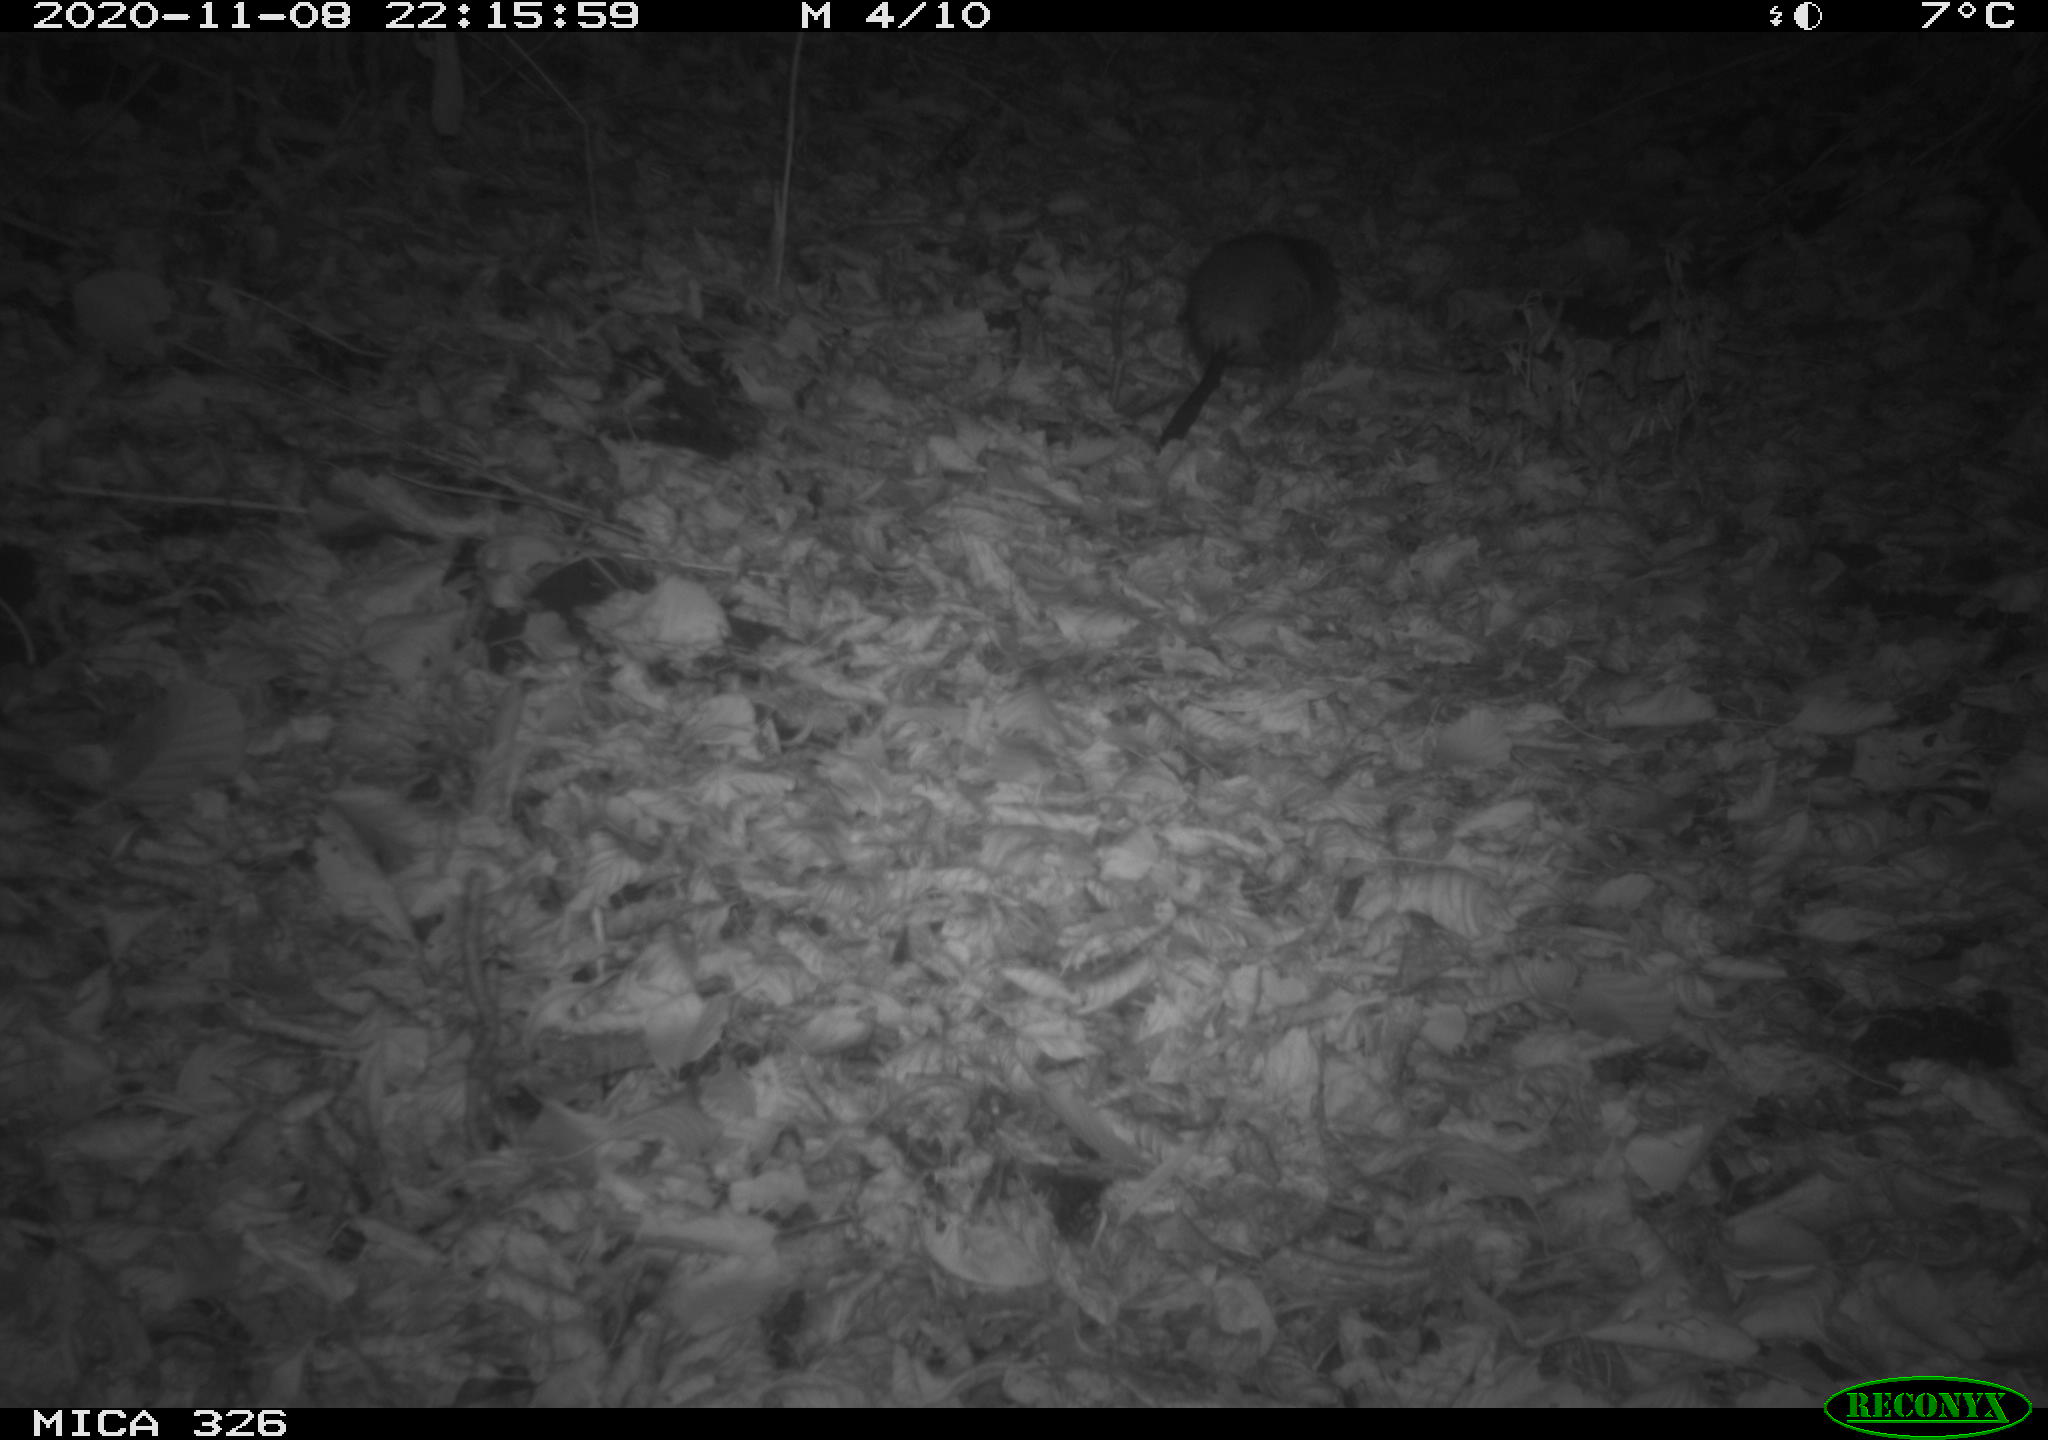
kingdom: Animalia
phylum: Chordata
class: Mammalia
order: Rodentia
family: Myocastoridae
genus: Myocastor
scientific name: Myocastor coypus
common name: Coypu
